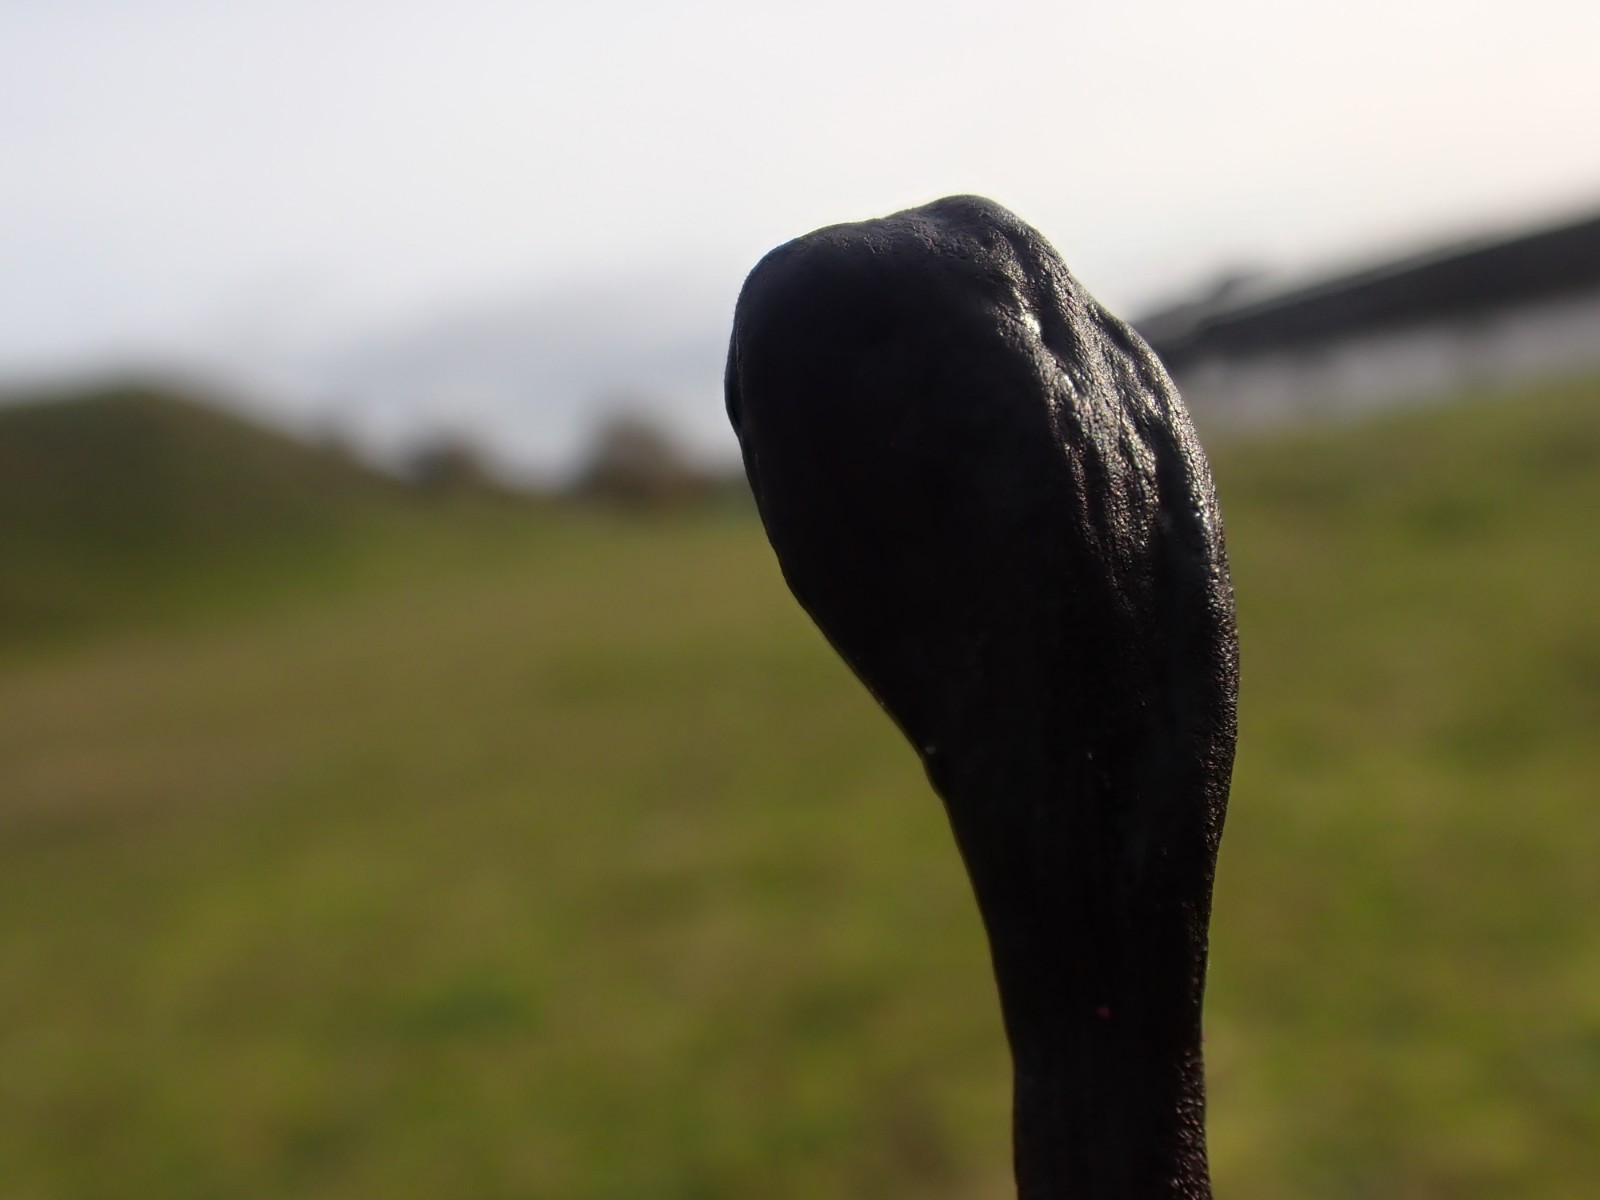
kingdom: Fungi
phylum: Ascomycota
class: Geoglossomycetes
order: Geoglossales
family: Geoglossaceae
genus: Geoglossum
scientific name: Geoglossum cookeianum
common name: bred jordtunge
